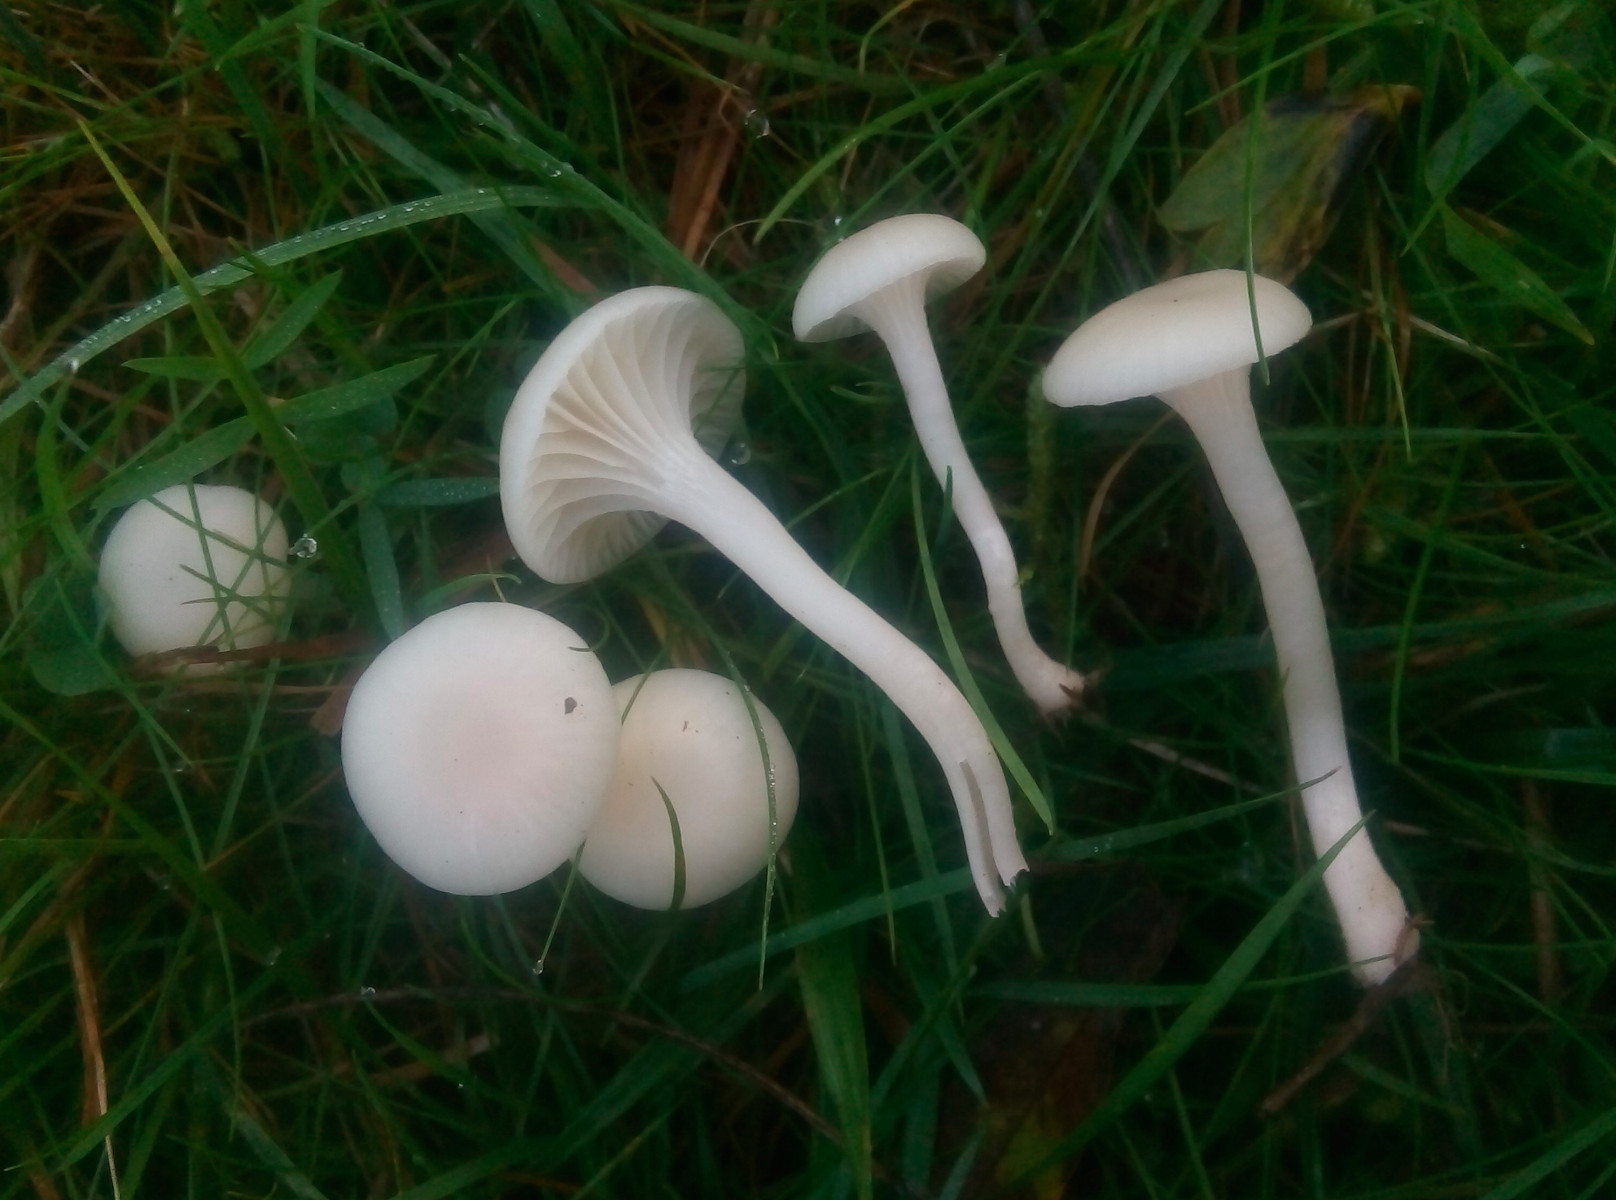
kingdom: Fungi
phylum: Basidiomycota
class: Agaricomycetes
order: Agaricales
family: Hygrophoraceae
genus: Cuphophyllus
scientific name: Cuphophyllus virgineus
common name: snehvid vokshat
